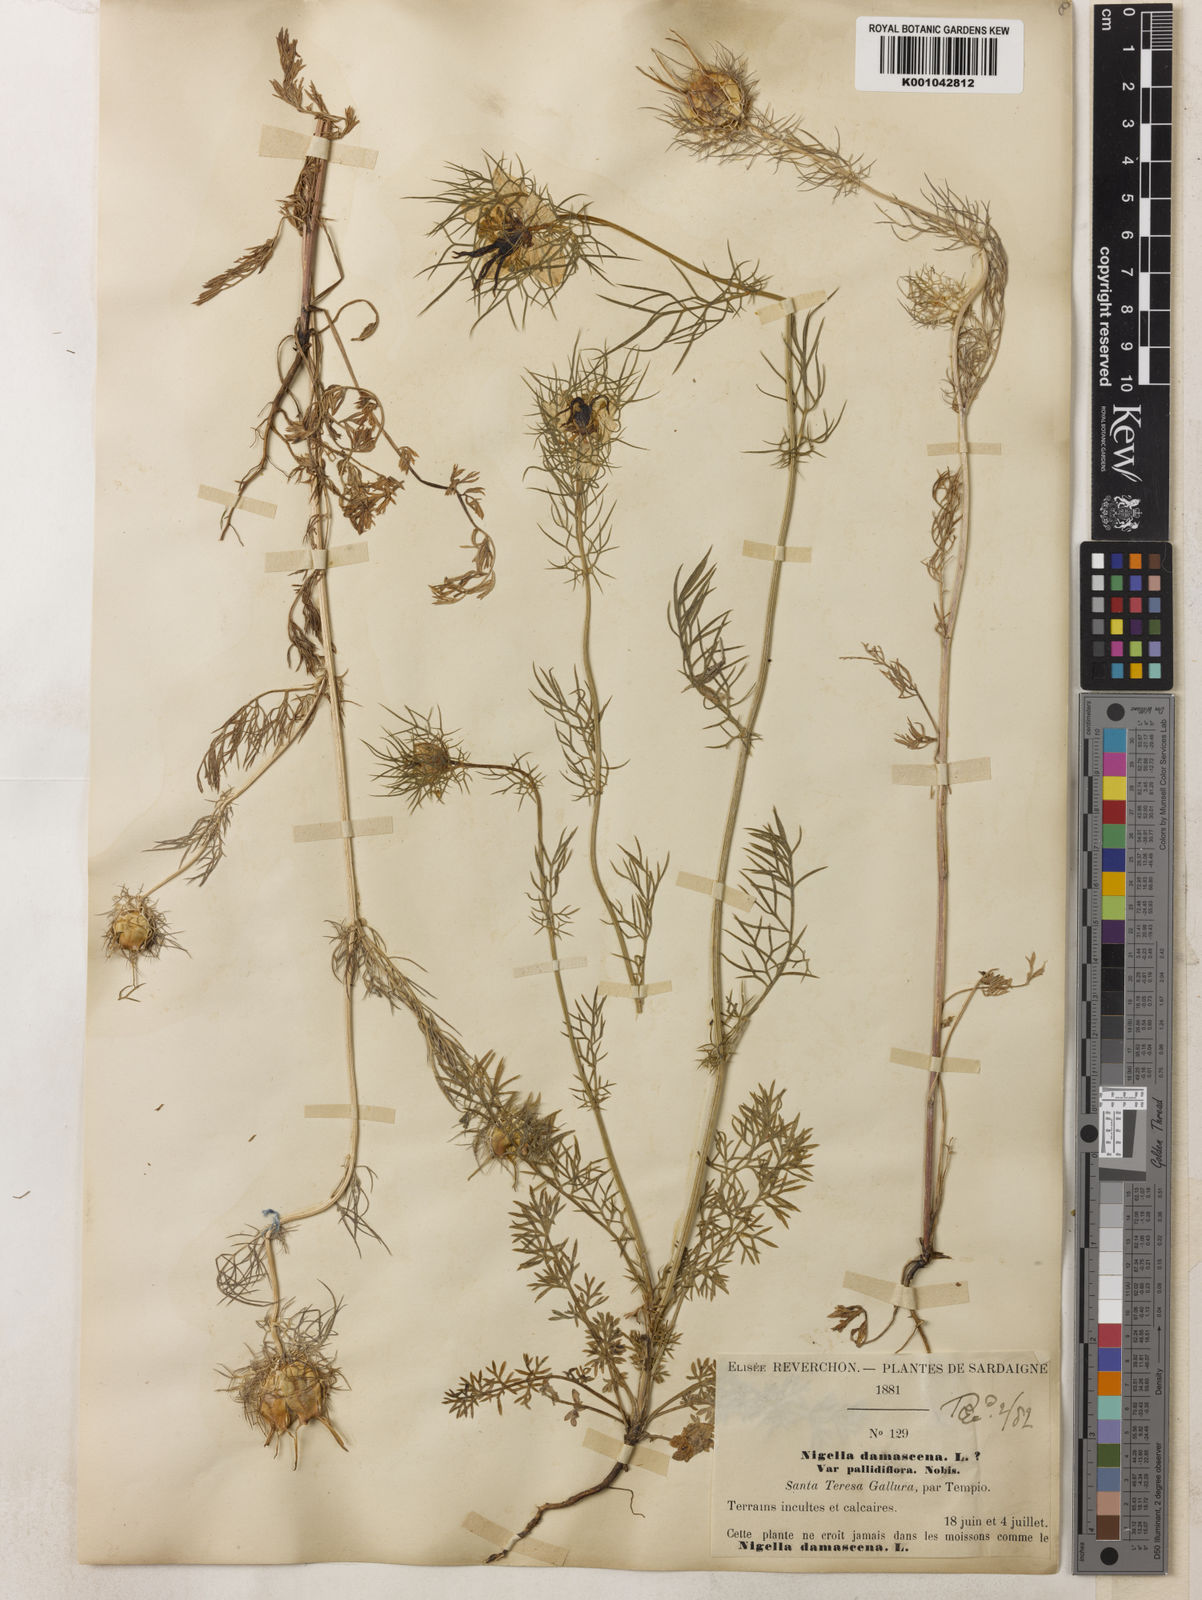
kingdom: Plantae
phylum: Tracheophyta
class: Magnoliopsida
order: Ranunculales
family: Ranunculaceae
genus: Nigella
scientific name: Nigella damascena
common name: Love-in-a-mist
